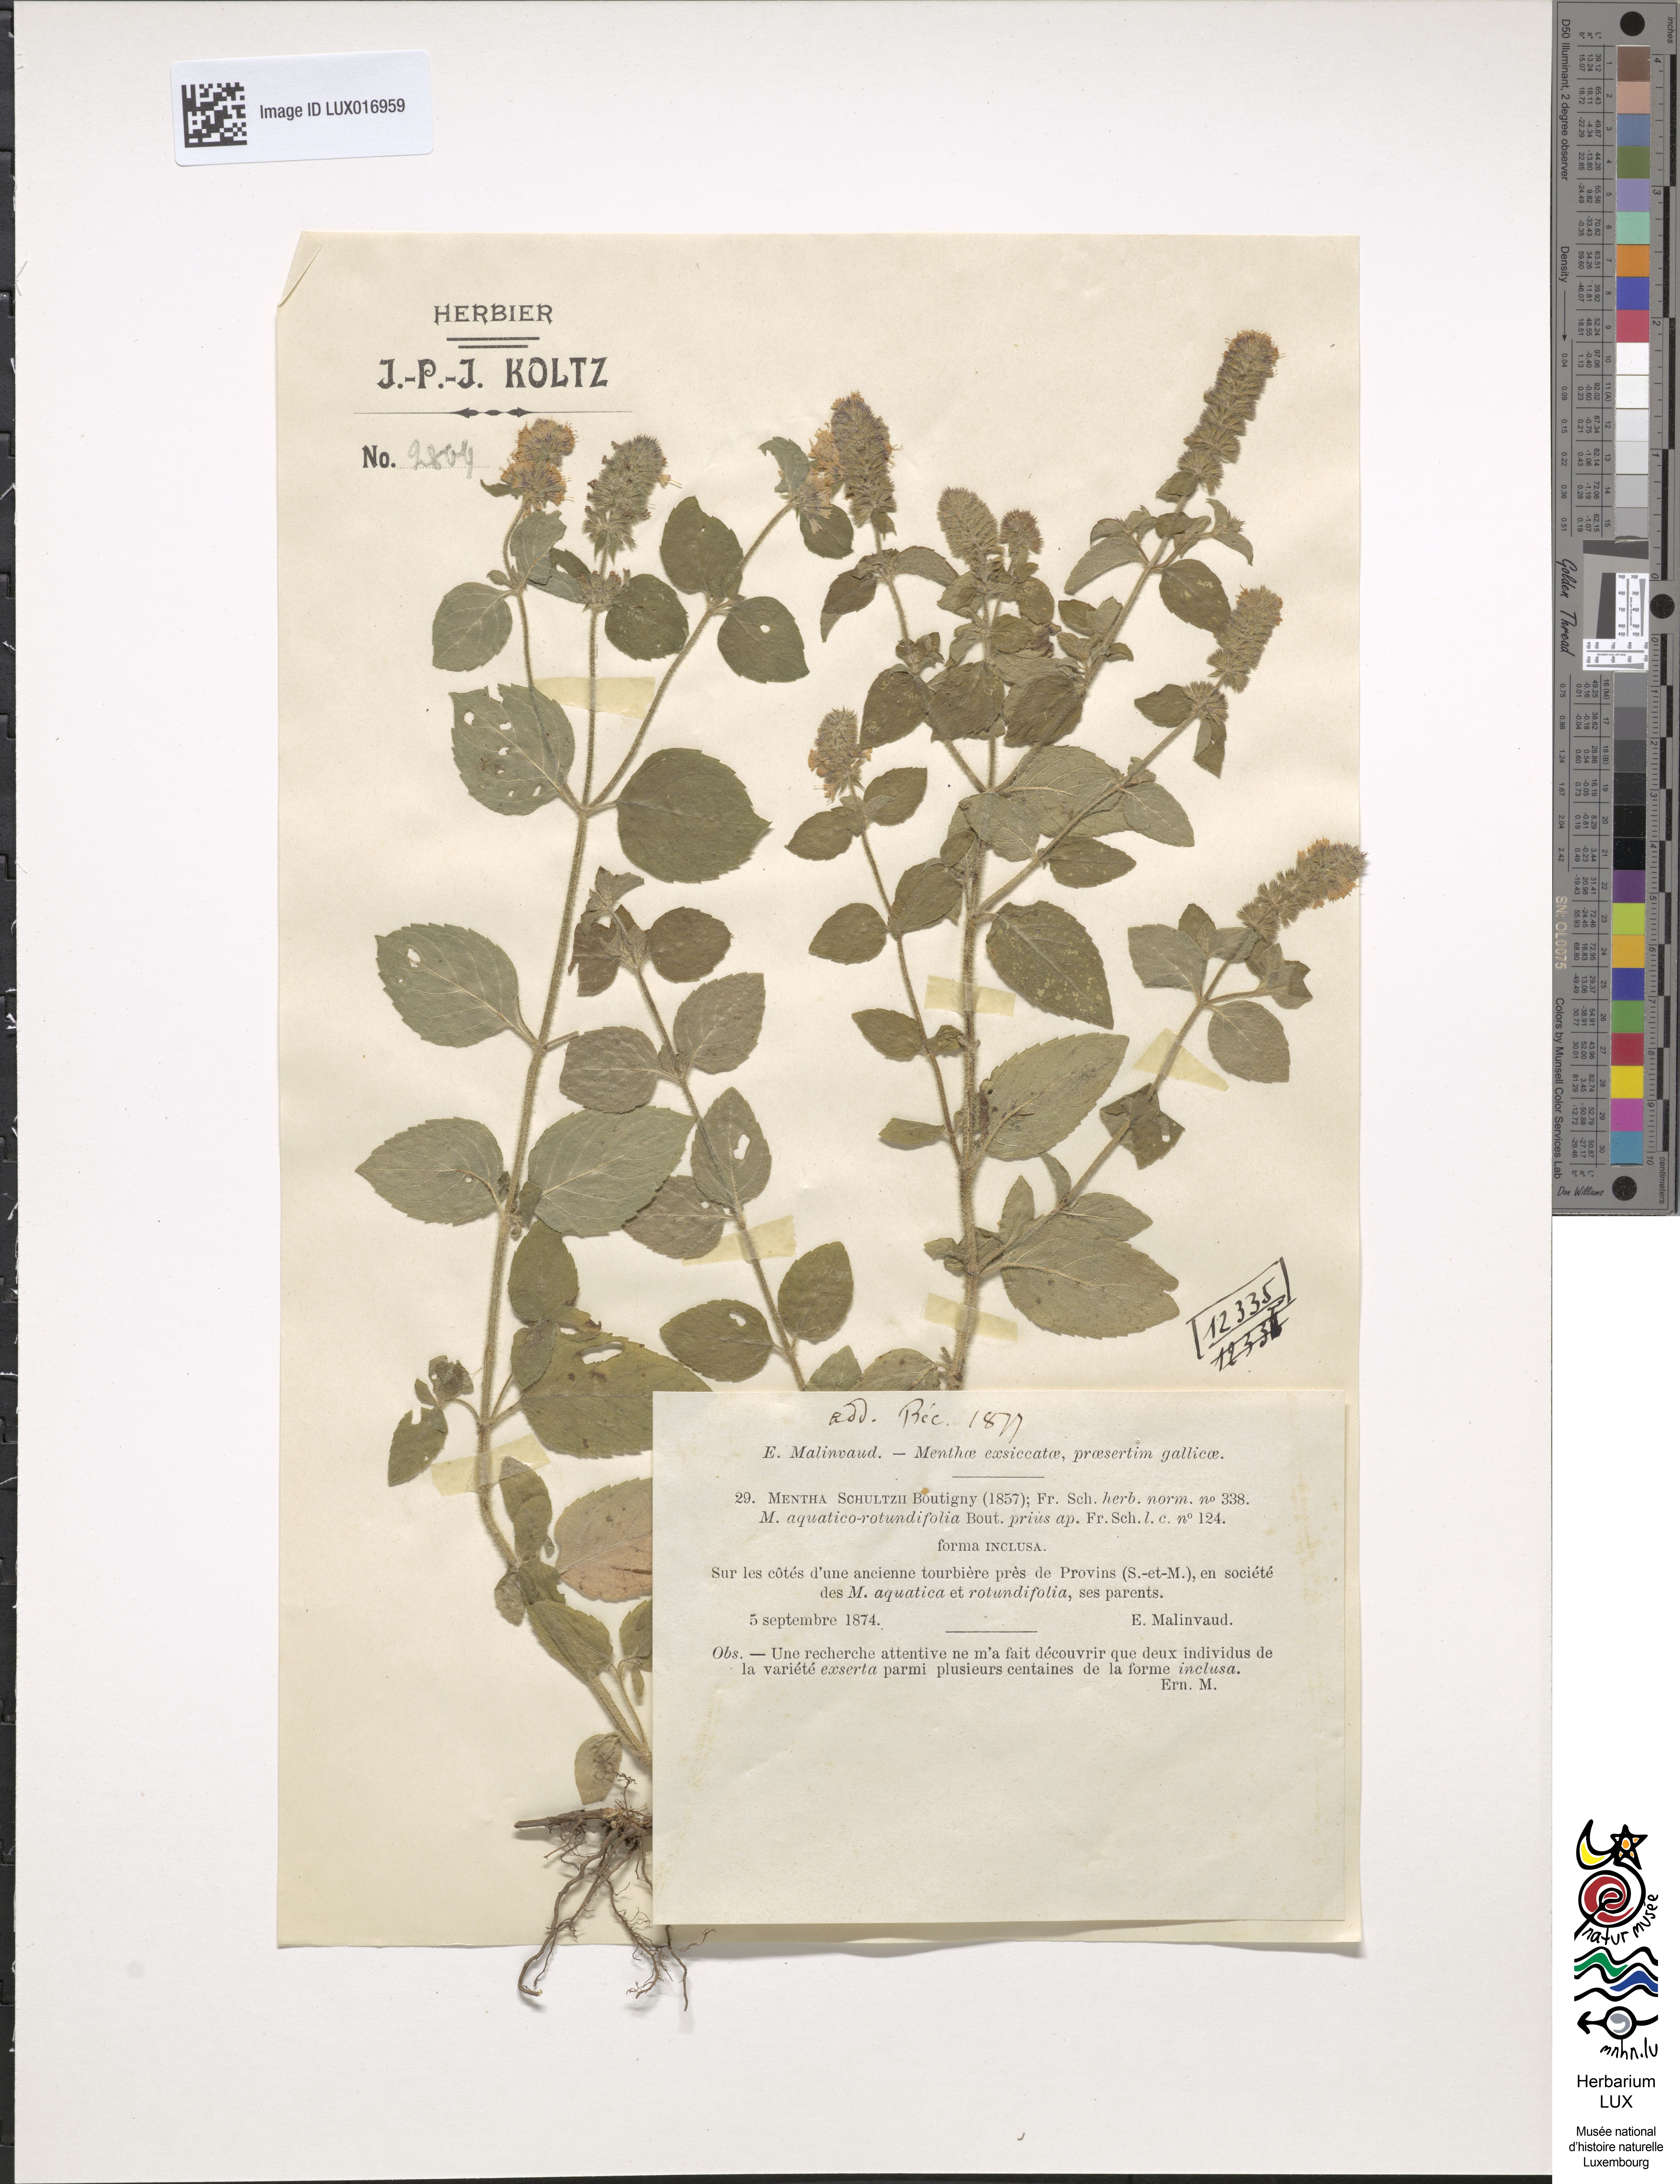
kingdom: Plantae
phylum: Tracheophyta
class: Magnoliopsida
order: Lamiales
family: Lamiaceae
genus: Mentha
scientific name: Mentha suavis
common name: Sweet mint
